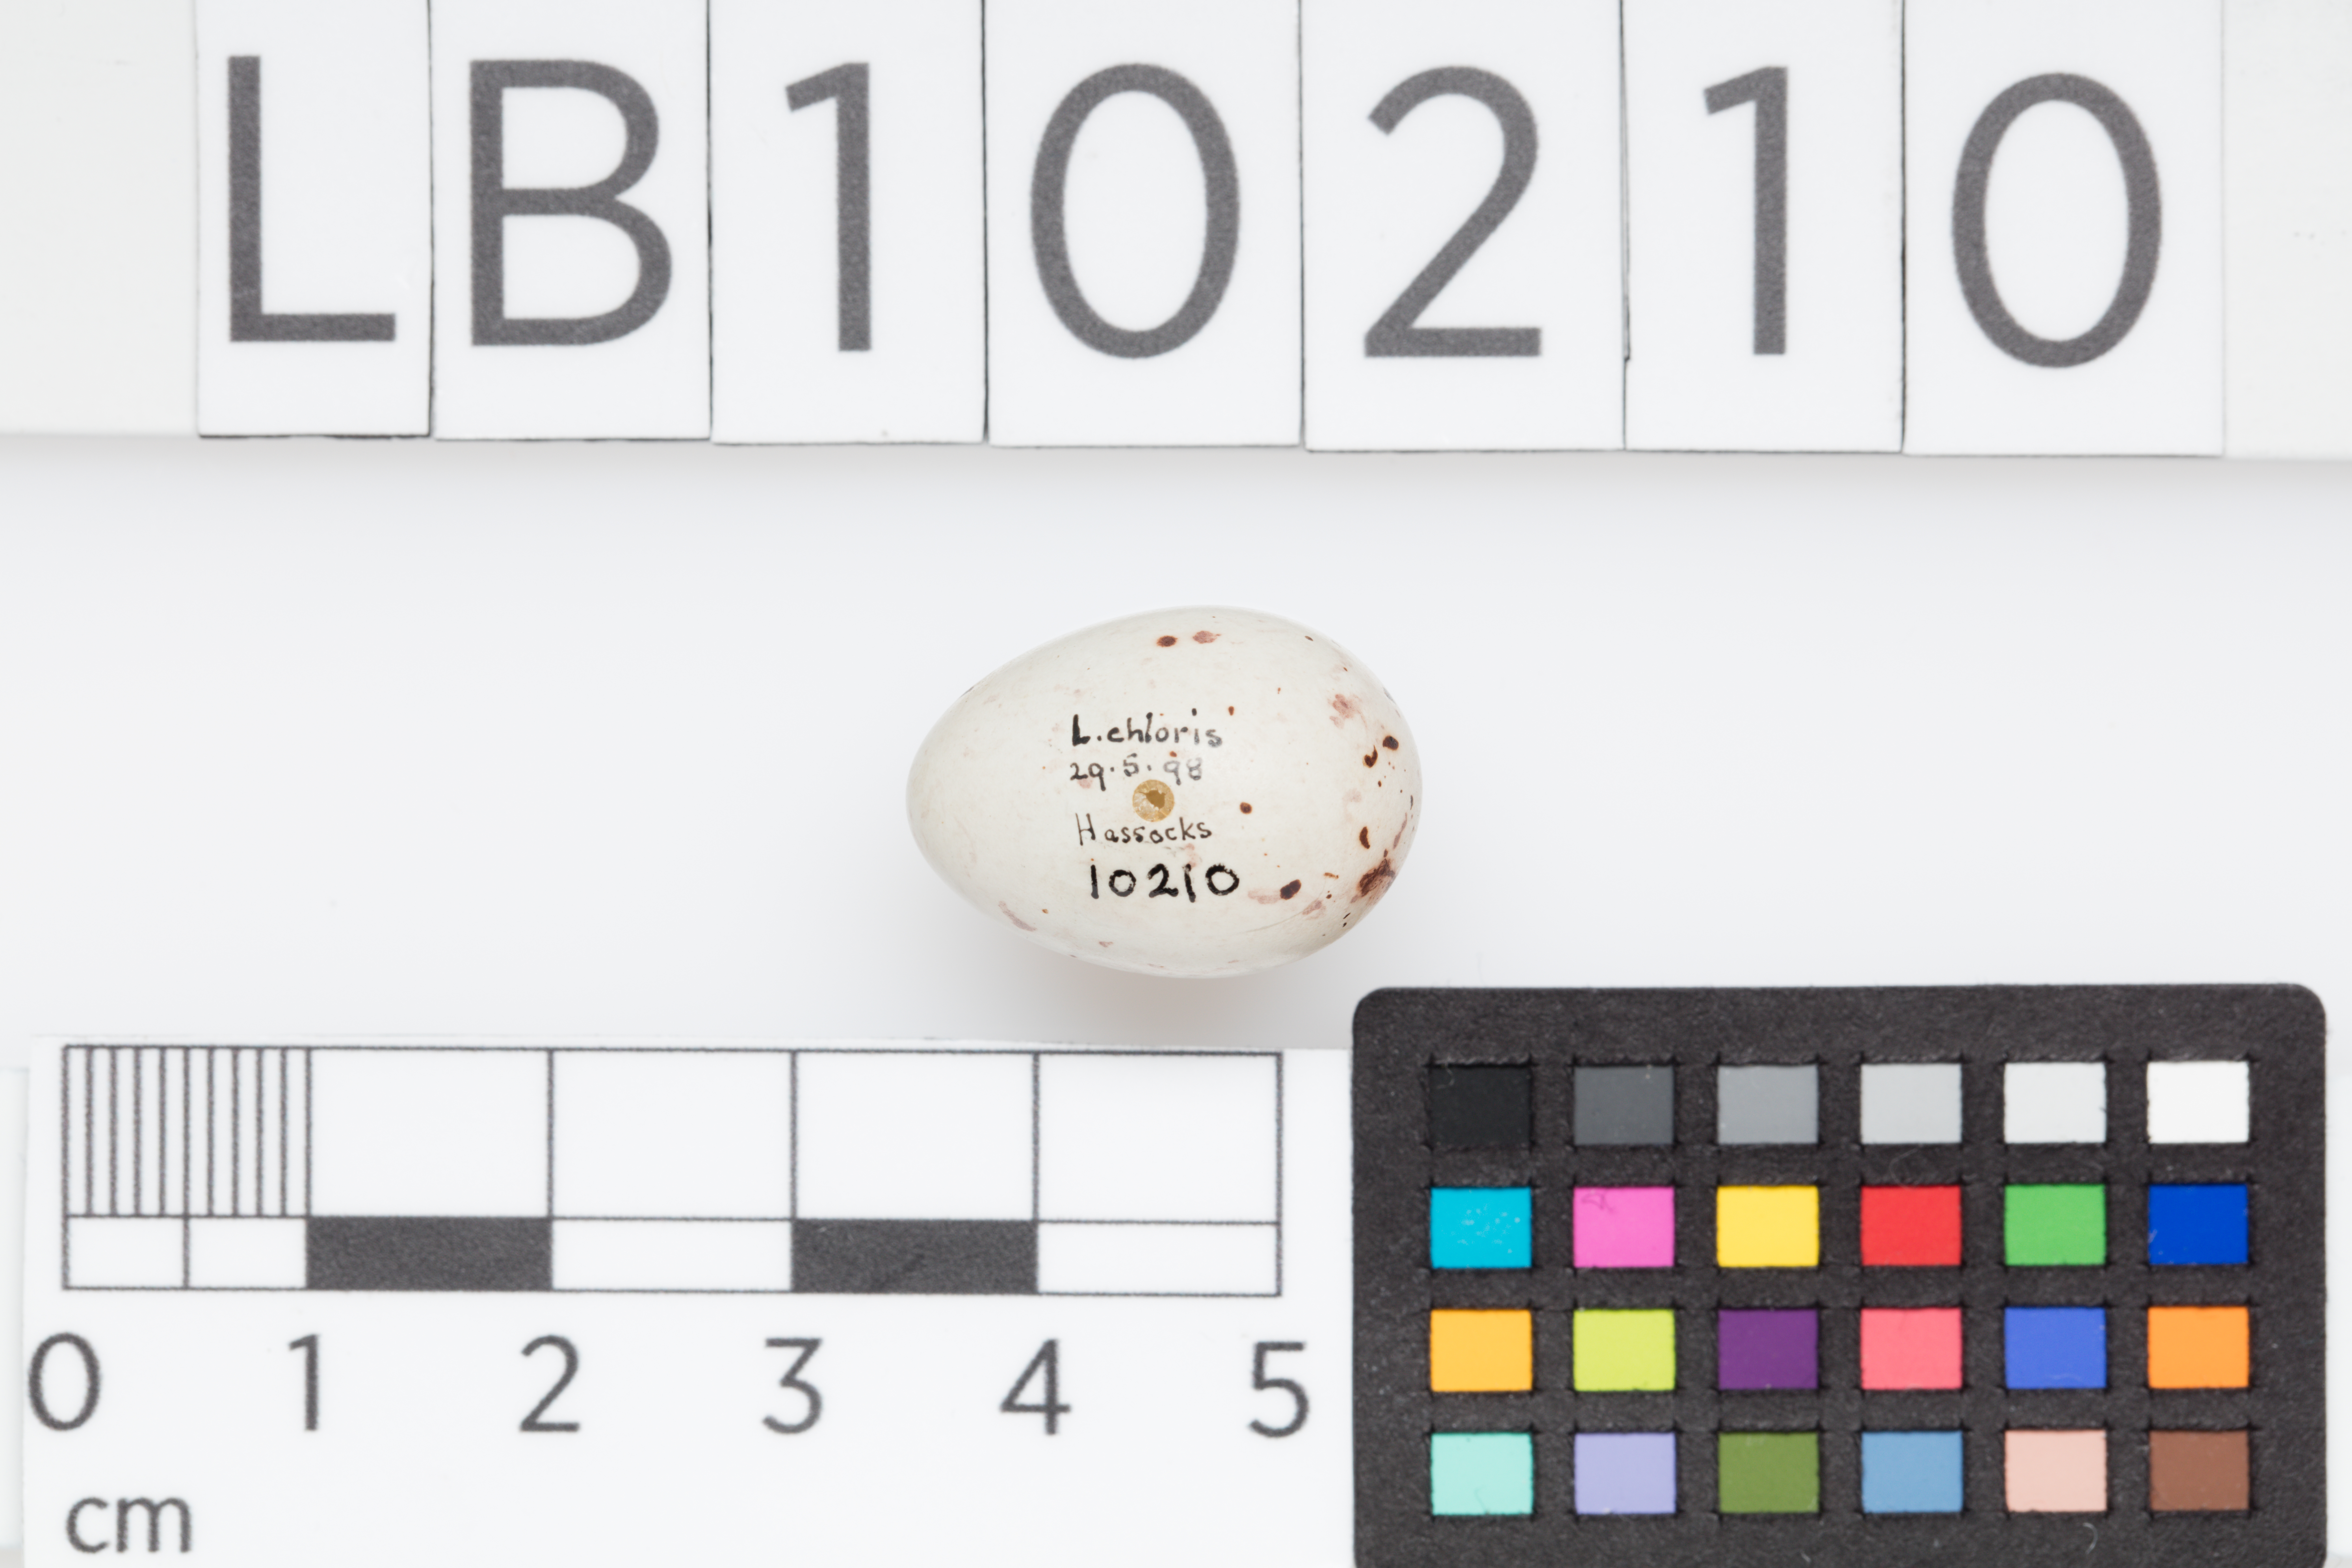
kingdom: Plantae
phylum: Tracheophyta
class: Liliopsida
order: Poales
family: Poaceae
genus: Chloris
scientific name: Chloris chloris
